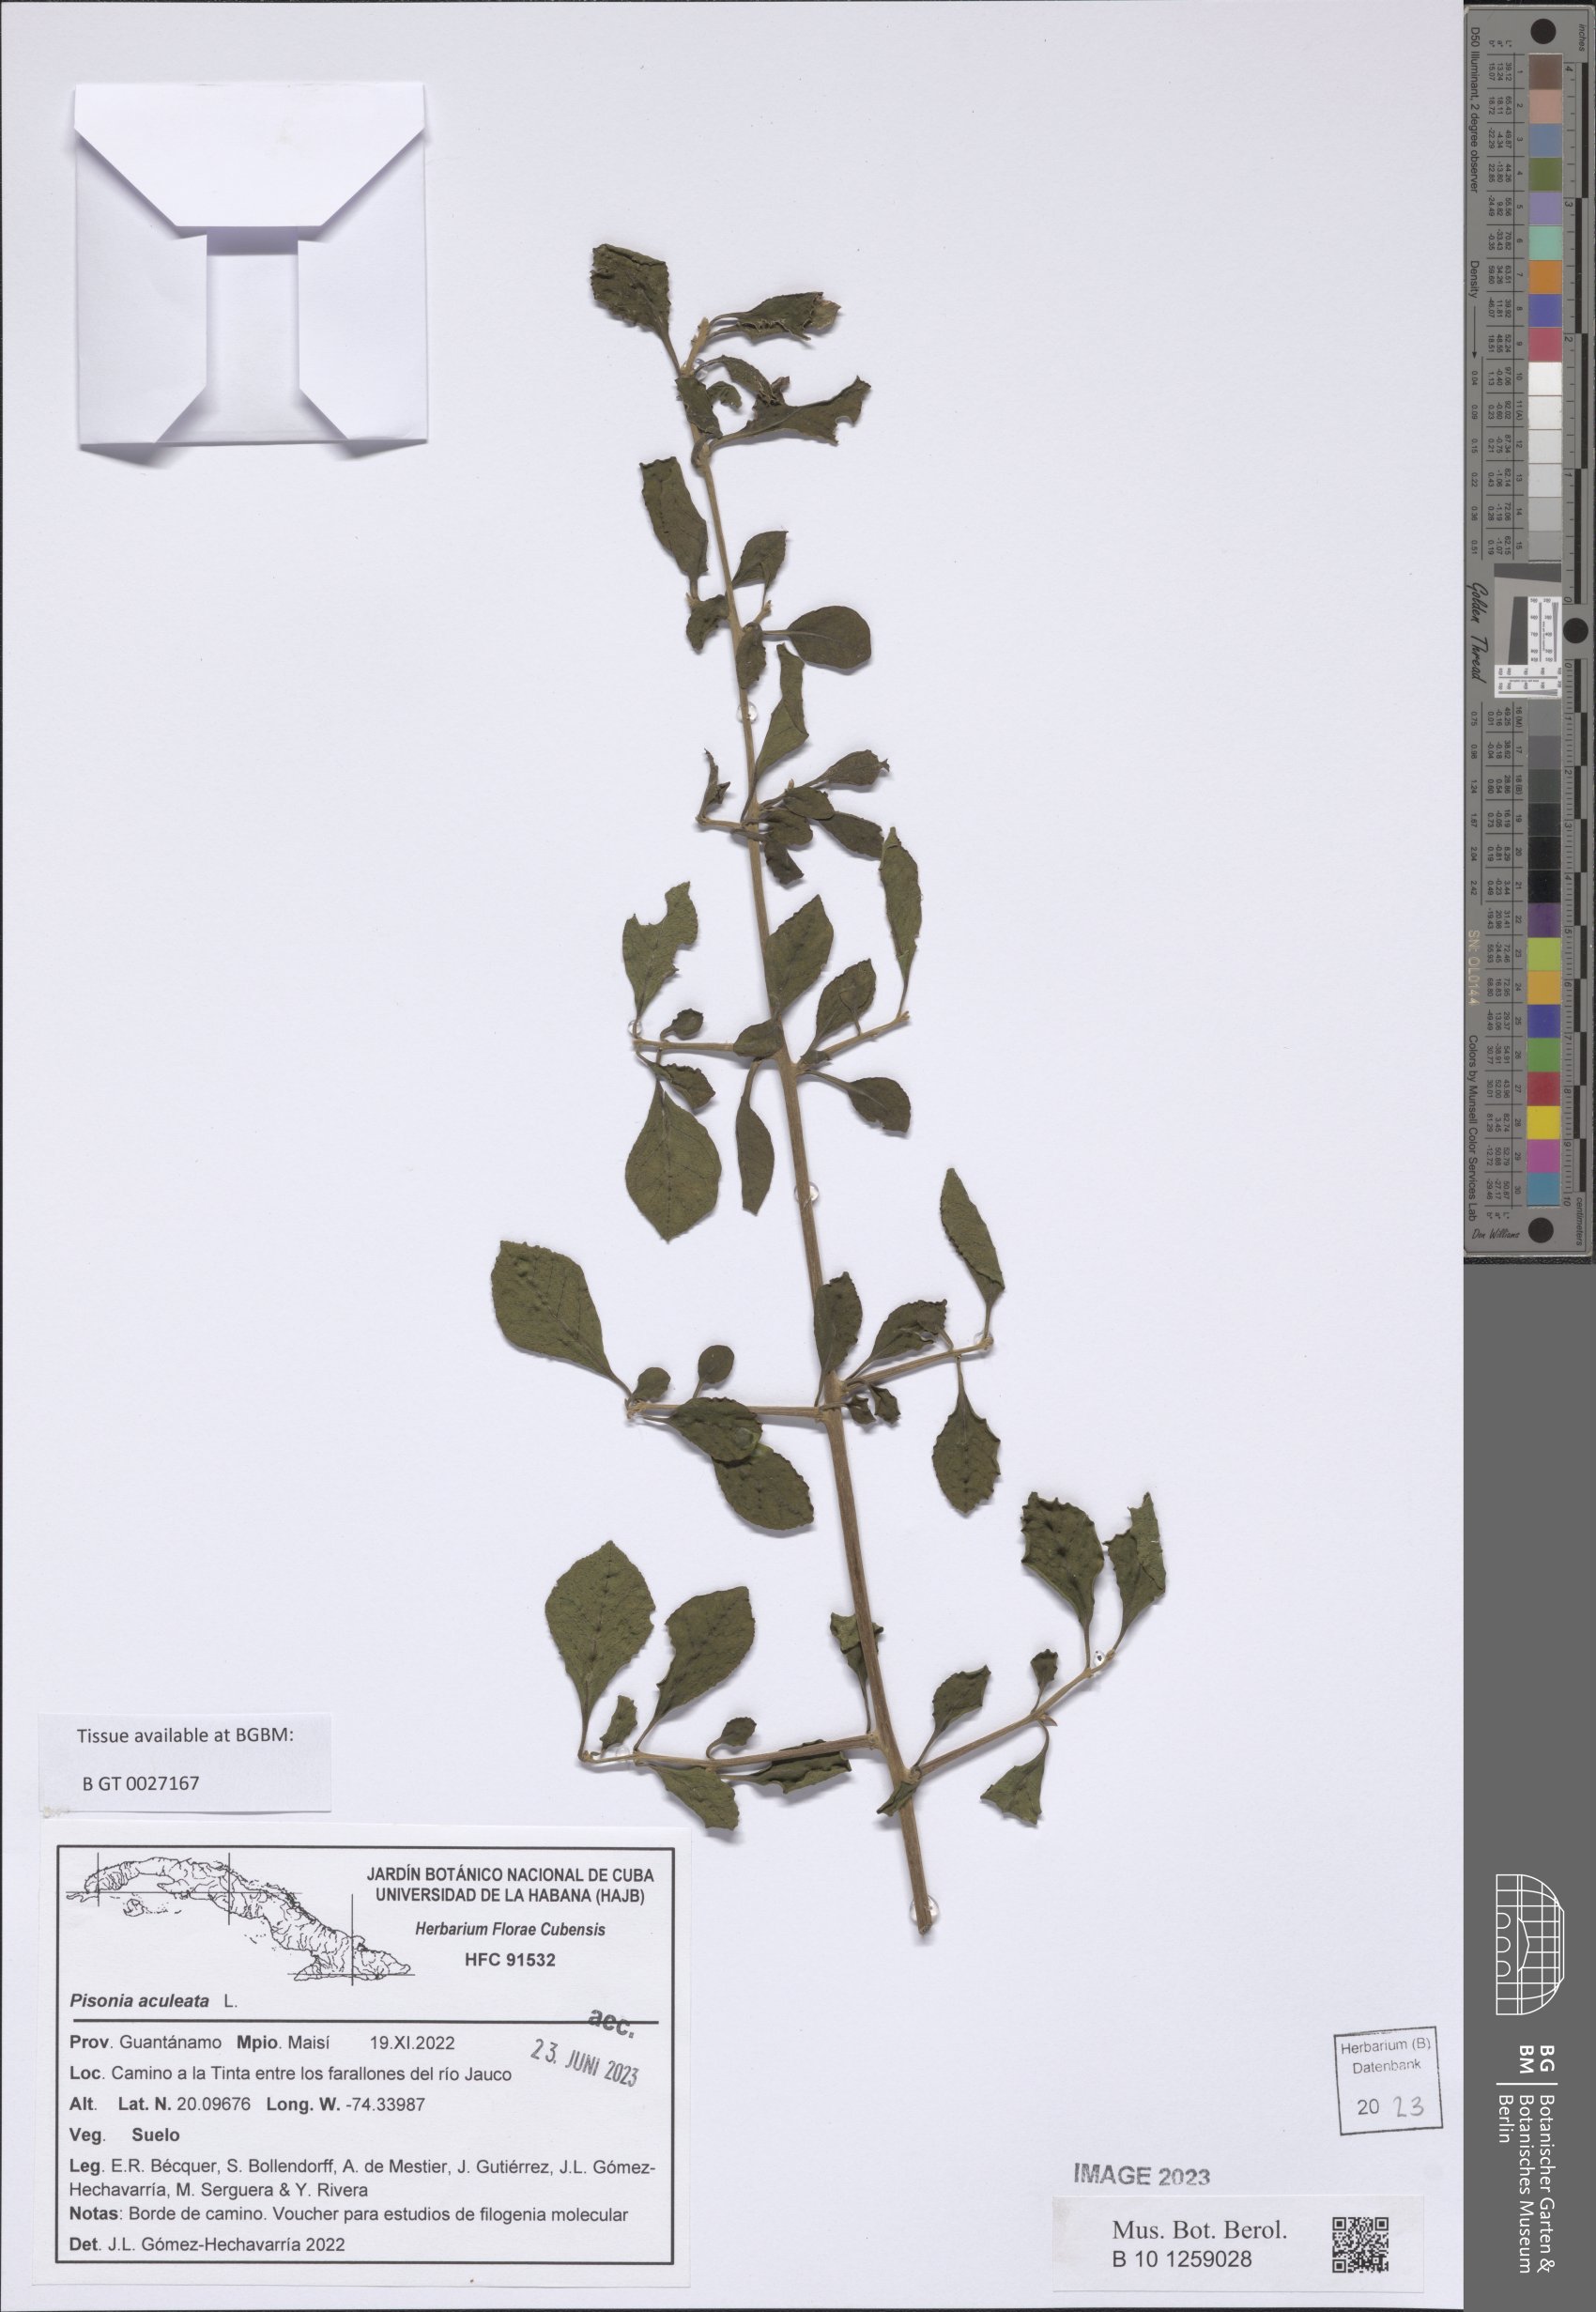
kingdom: Plantae
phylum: Tracheophyta
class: Magnoliopsida
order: Caryophyllales
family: Nyctaginaceae
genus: Pisonia
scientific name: Pisonia aculeata
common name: Cockspur vine
